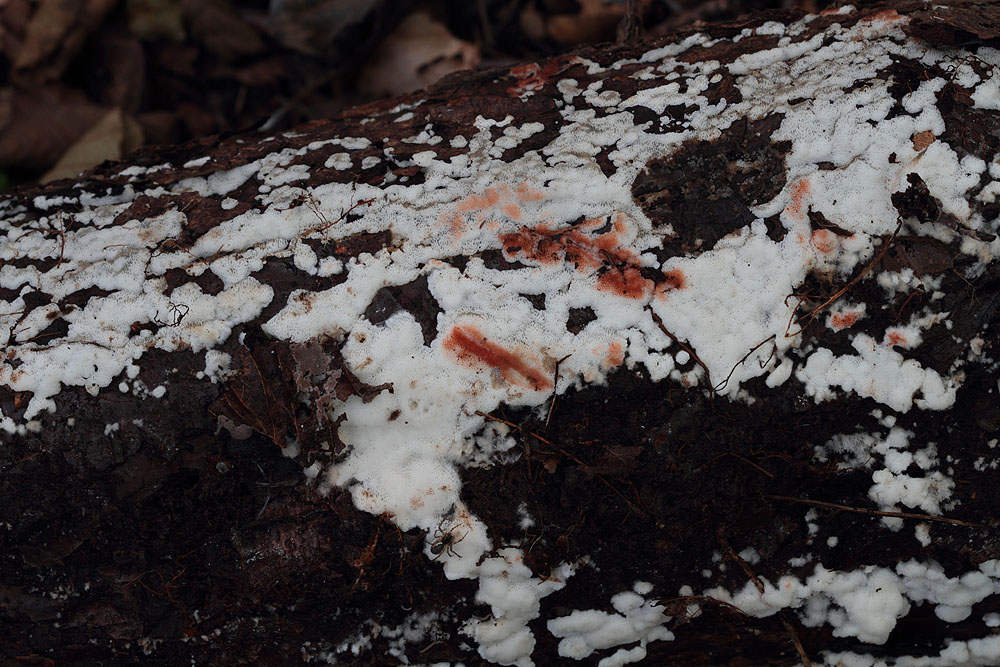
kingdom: Fungi
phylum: Basidiomycota
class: Agaricomycetes
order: Polyporales
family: Meripilaceae
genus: Rigidoporus
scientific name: Rigidoporus sanguinolentus
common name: blod-skorpeporesvamp
